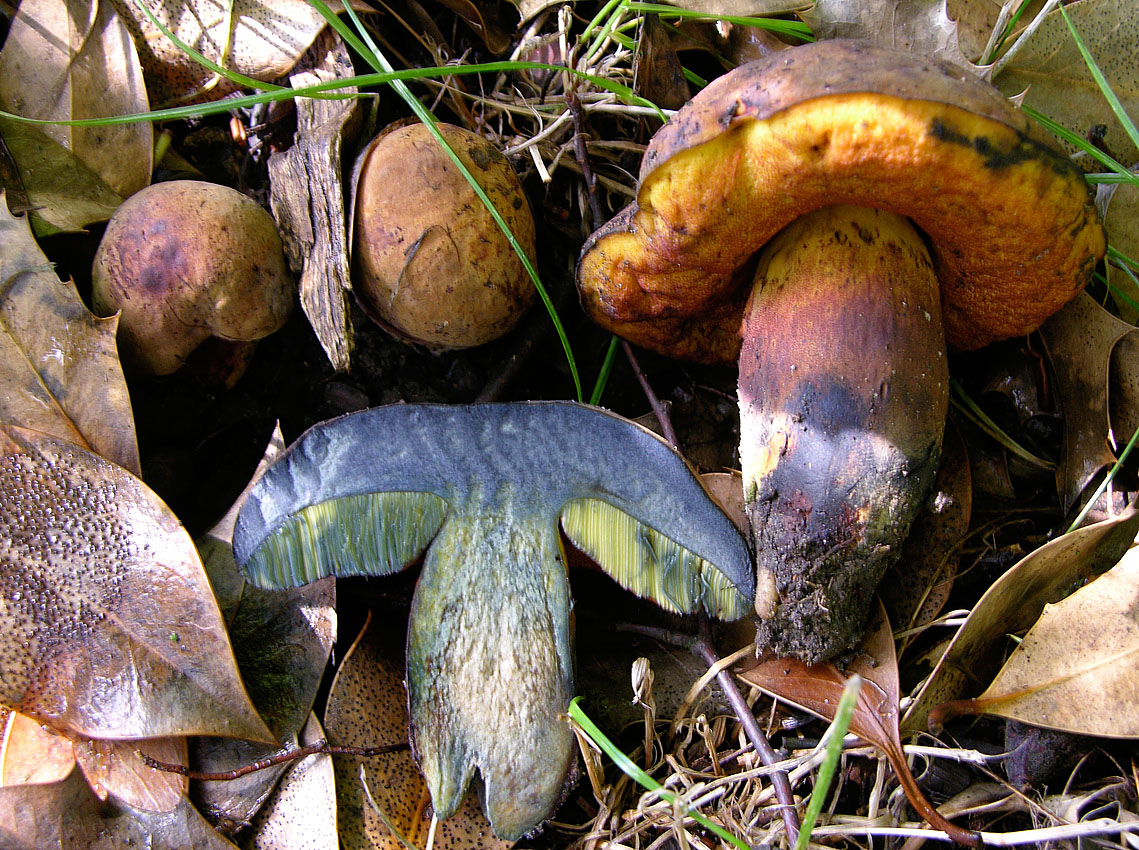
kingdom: Fungi
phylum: Basidiomycota
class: Agaricomycetes
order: Boletales
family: Boletaceae
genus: Neoboletus
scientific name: Neoboletus xanthopus
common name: finprikket indigorørhat
